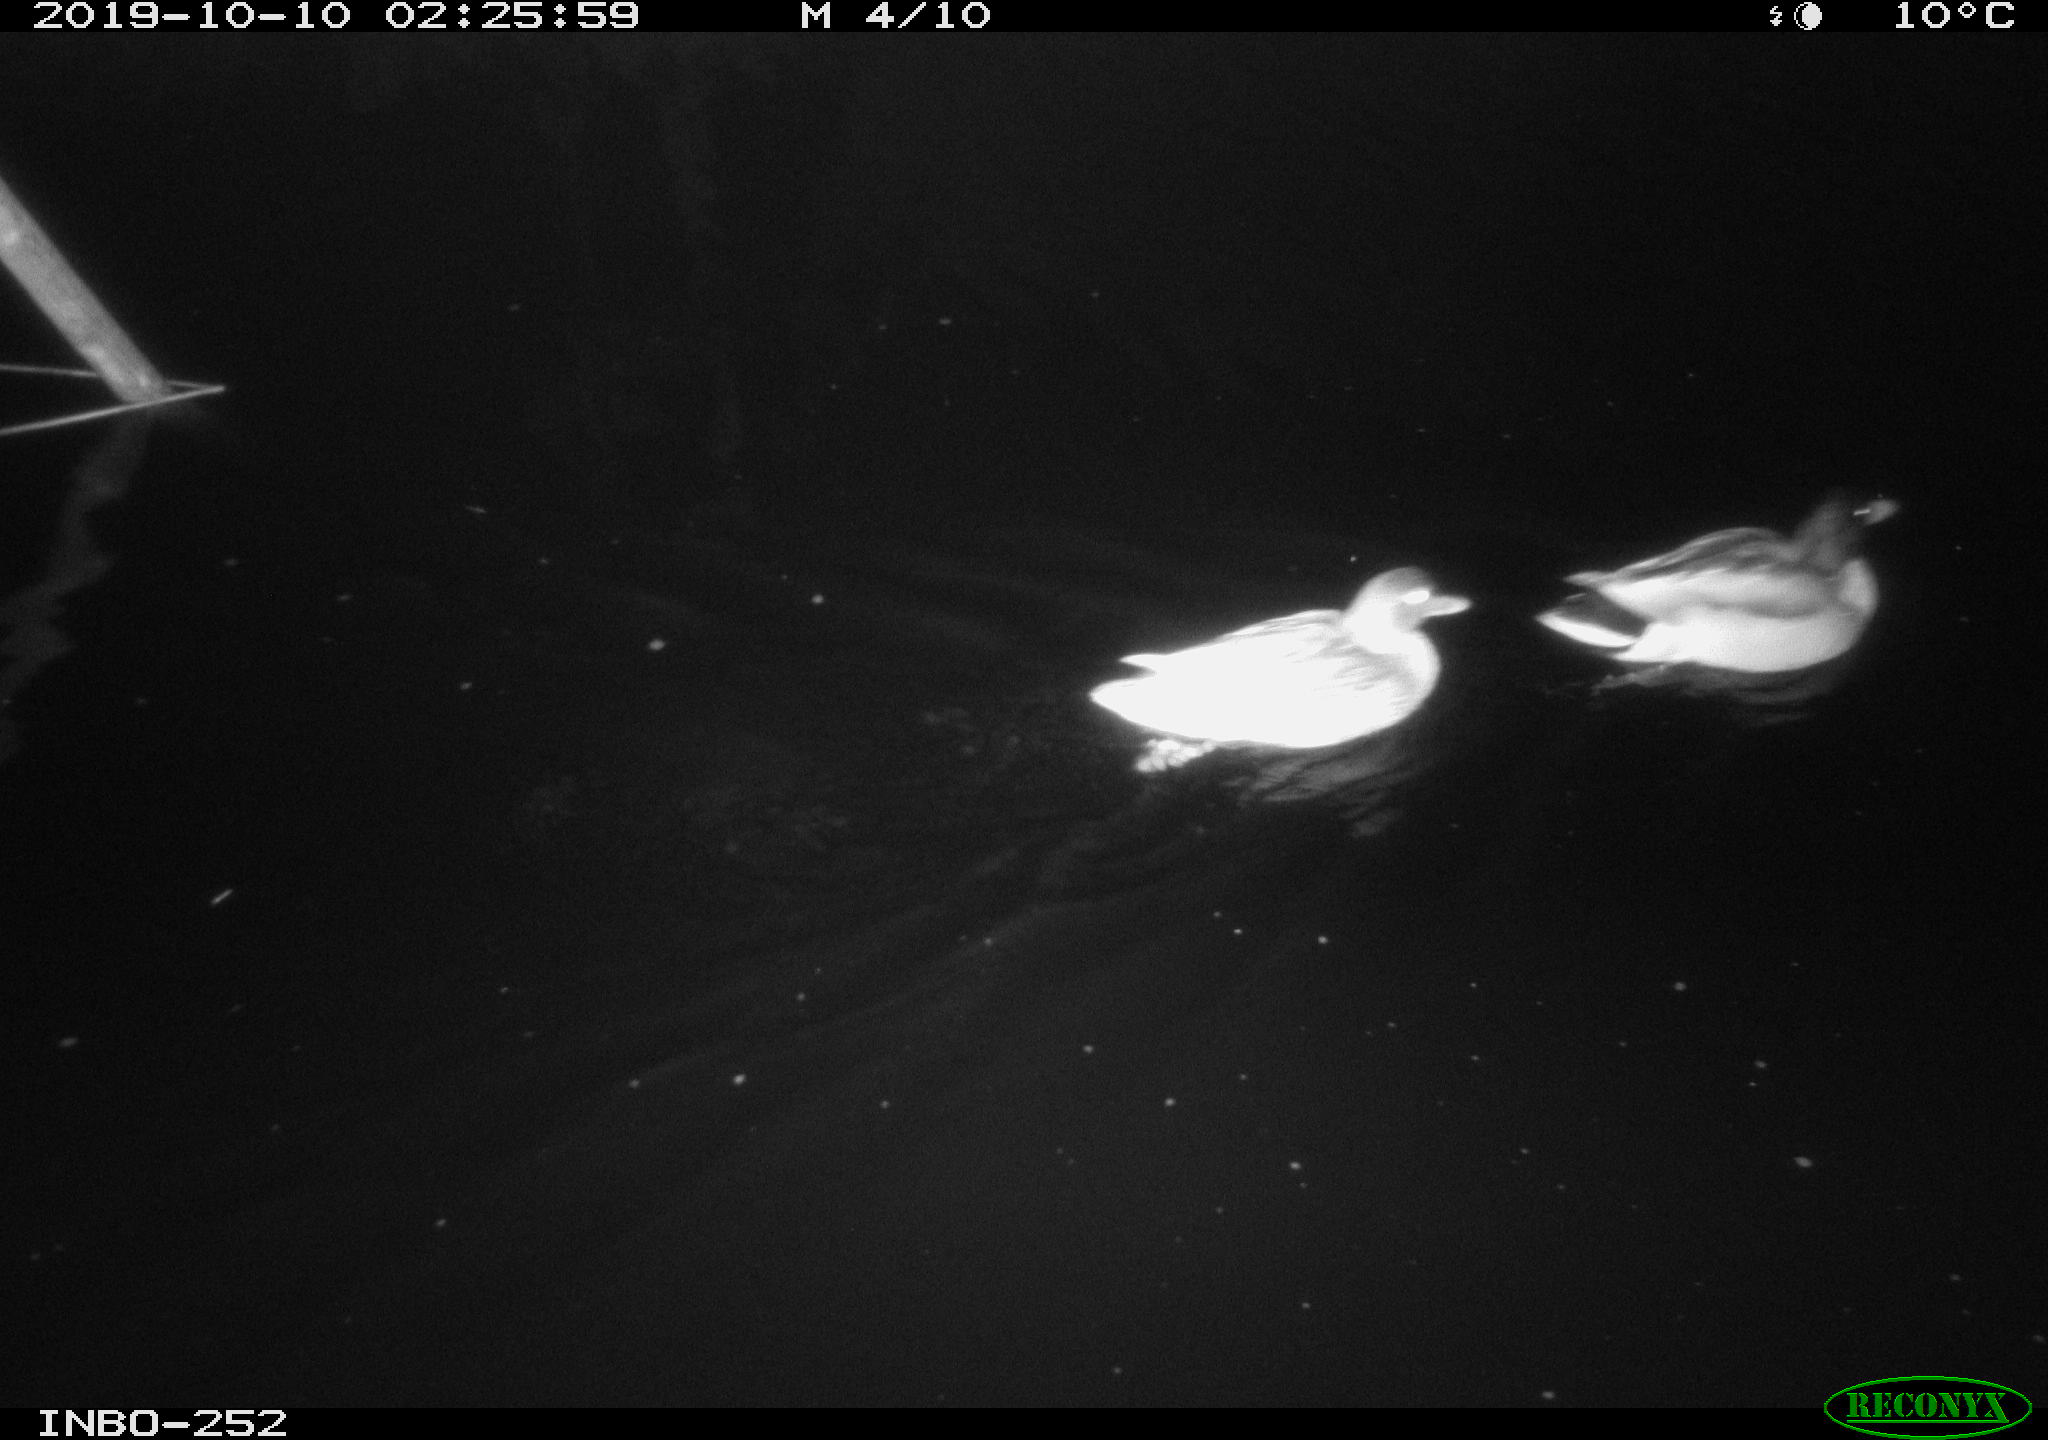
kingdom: Animalia
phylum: Chordata
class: Aves
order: Anseriformes
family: Anatidae
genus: Anas
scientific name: Anas platyrhynchos
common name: Mallard
